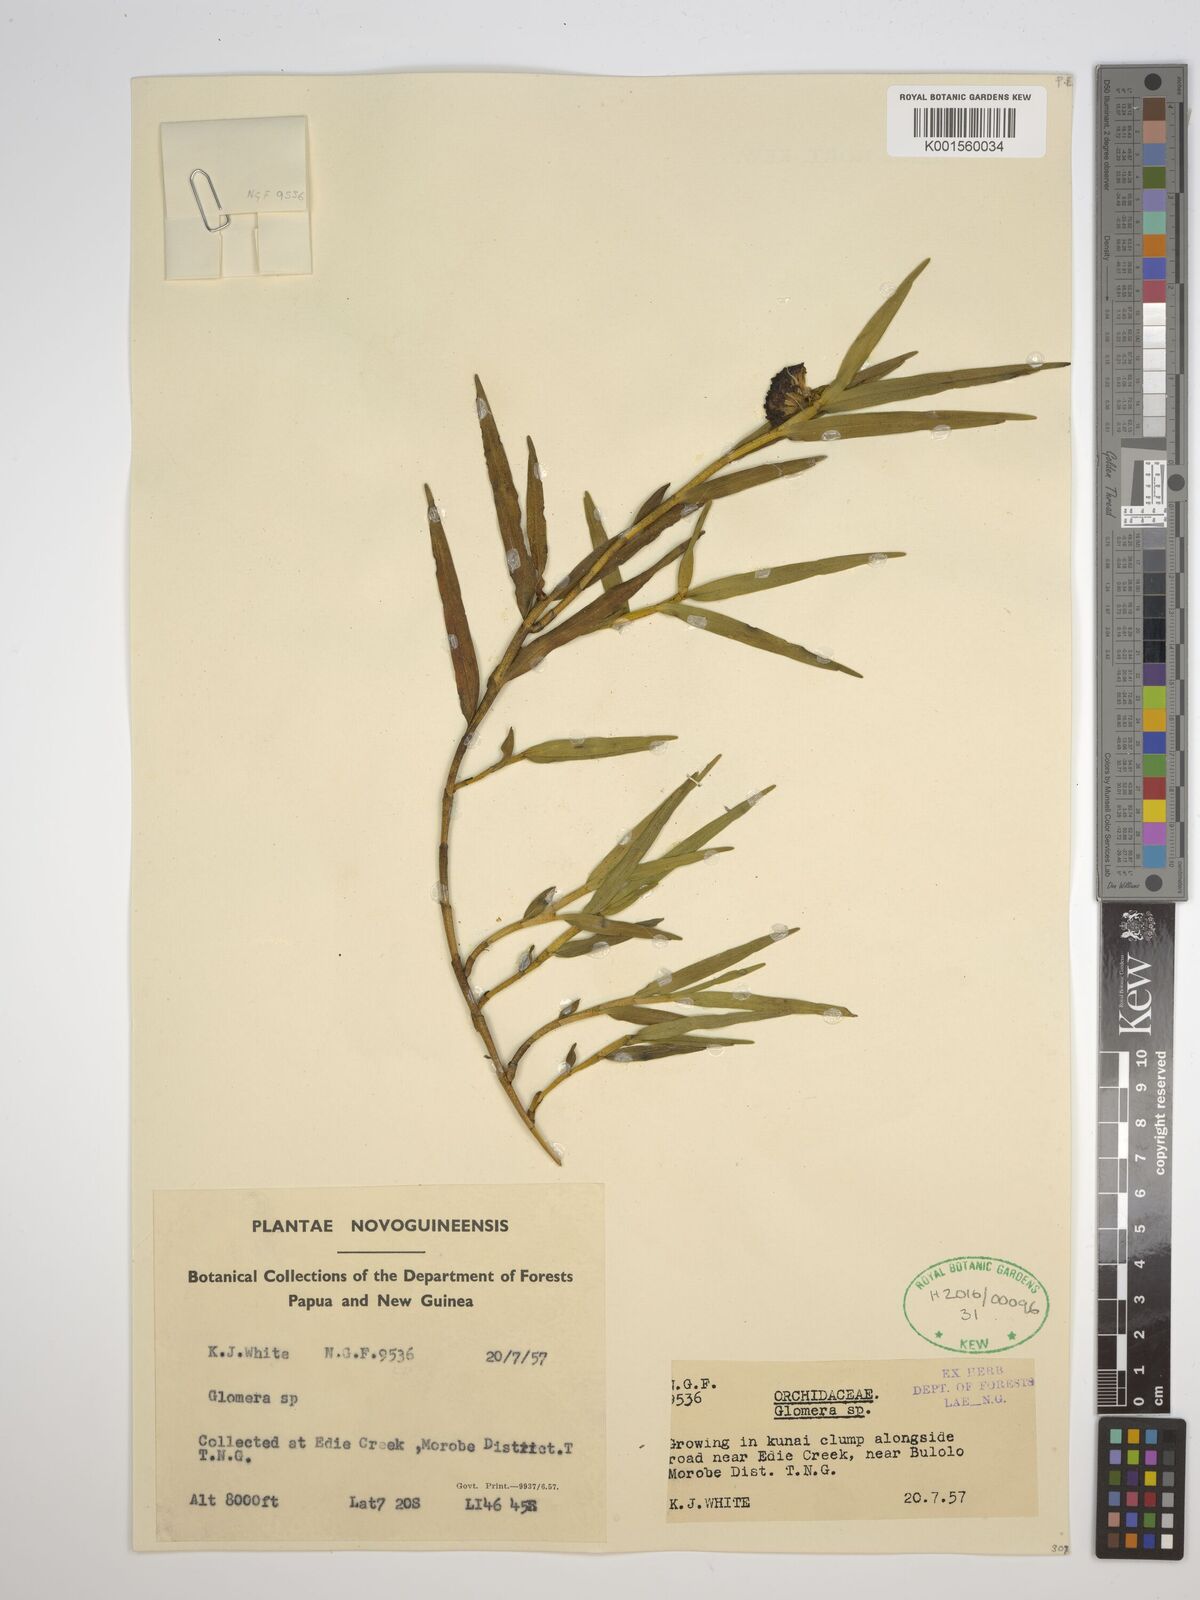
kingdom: Plantae
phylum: Tracheophyta
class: Liliopsida
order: Asparagales
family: Orchidaceae
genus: Glomera
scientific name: Glomera
